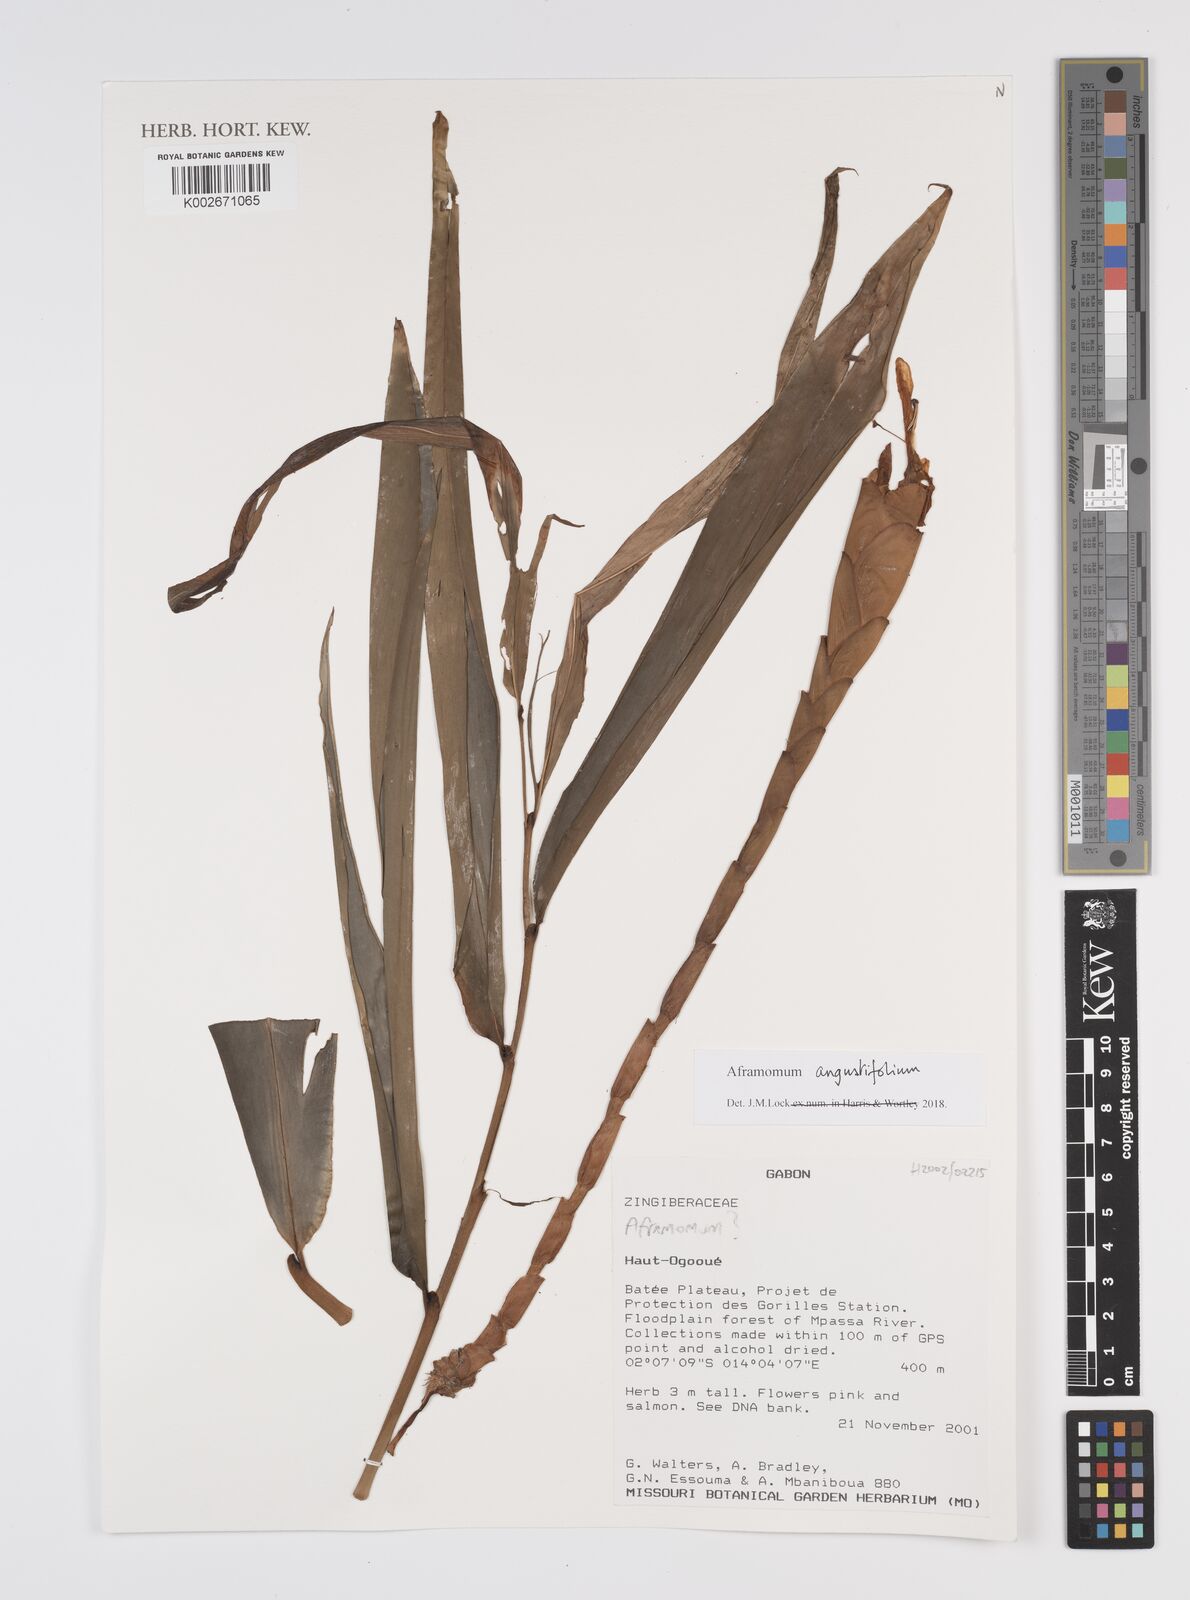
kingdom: Plantae
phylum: Tracheophyta
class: Liliopsida
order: Zingiberales
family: Zingiberaceae
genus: Aframomum
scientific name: Aframomum angustifolium
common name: Guinea grains
